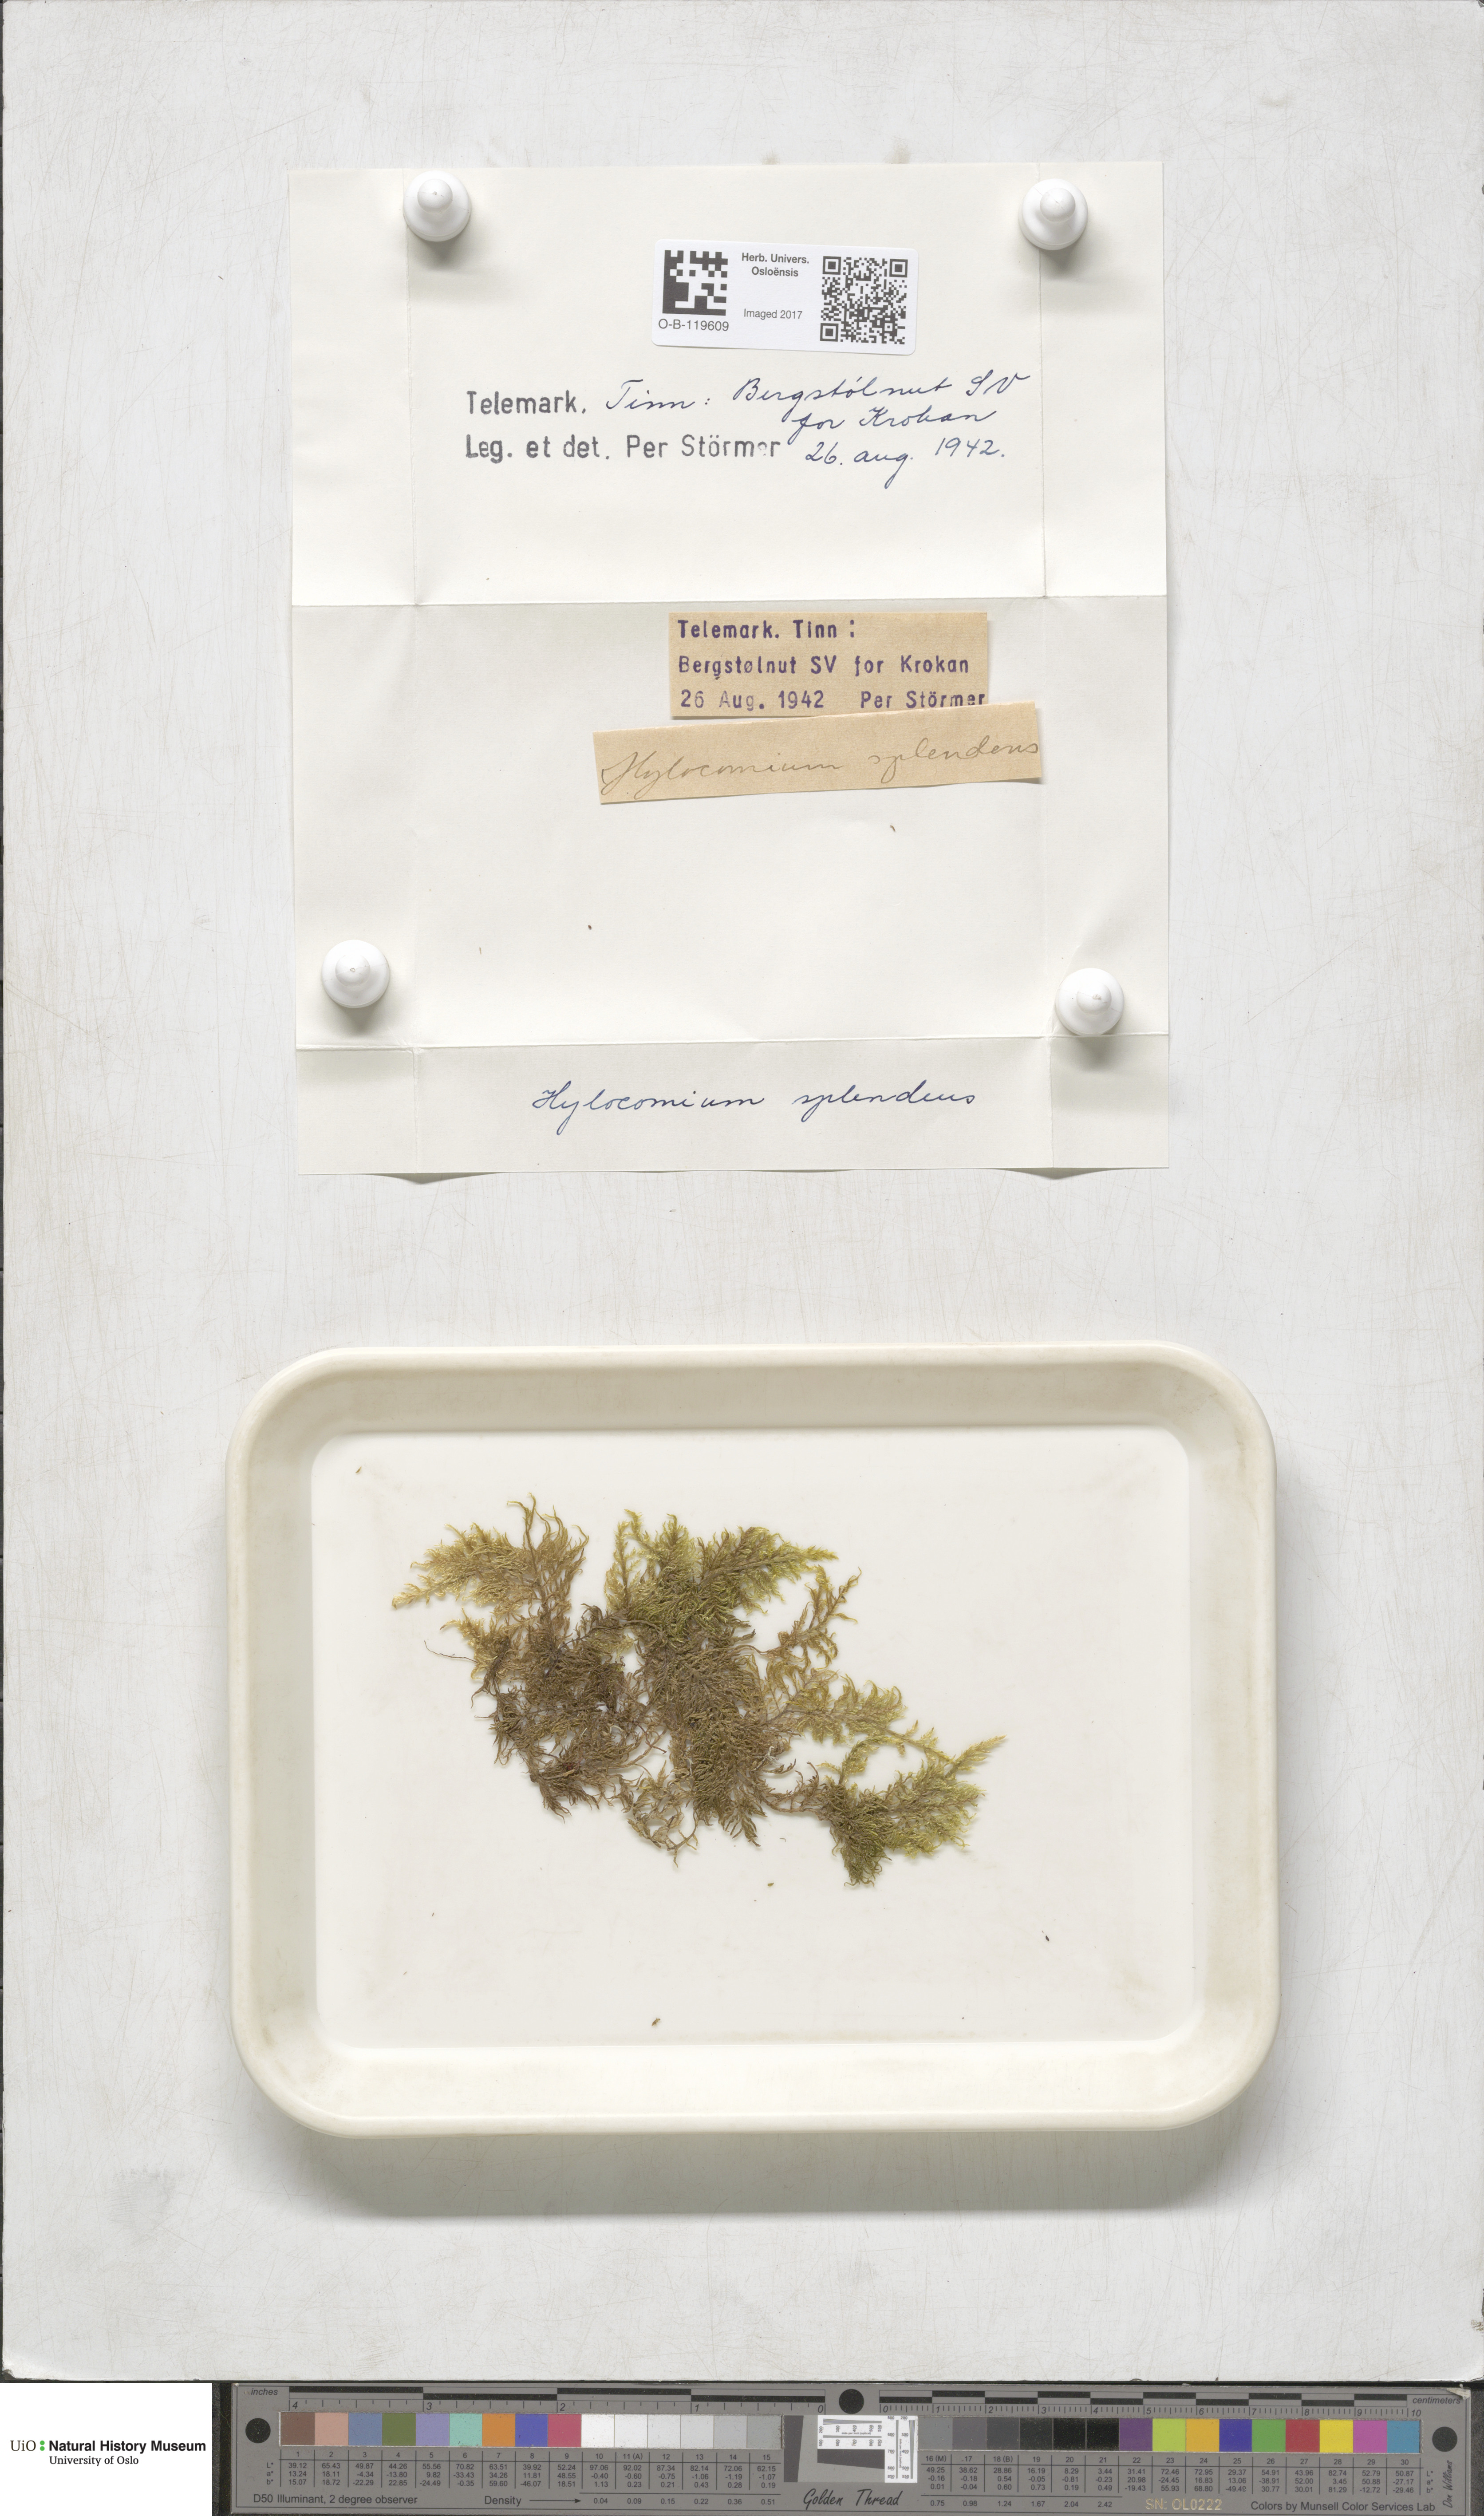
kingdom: Plantae
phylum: Bryophyta
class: Bryopsida
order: Hypnales
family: Hylocomiaceae
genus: Hylocomium
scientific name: Hylocomium splendens
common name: Stairstep moss
